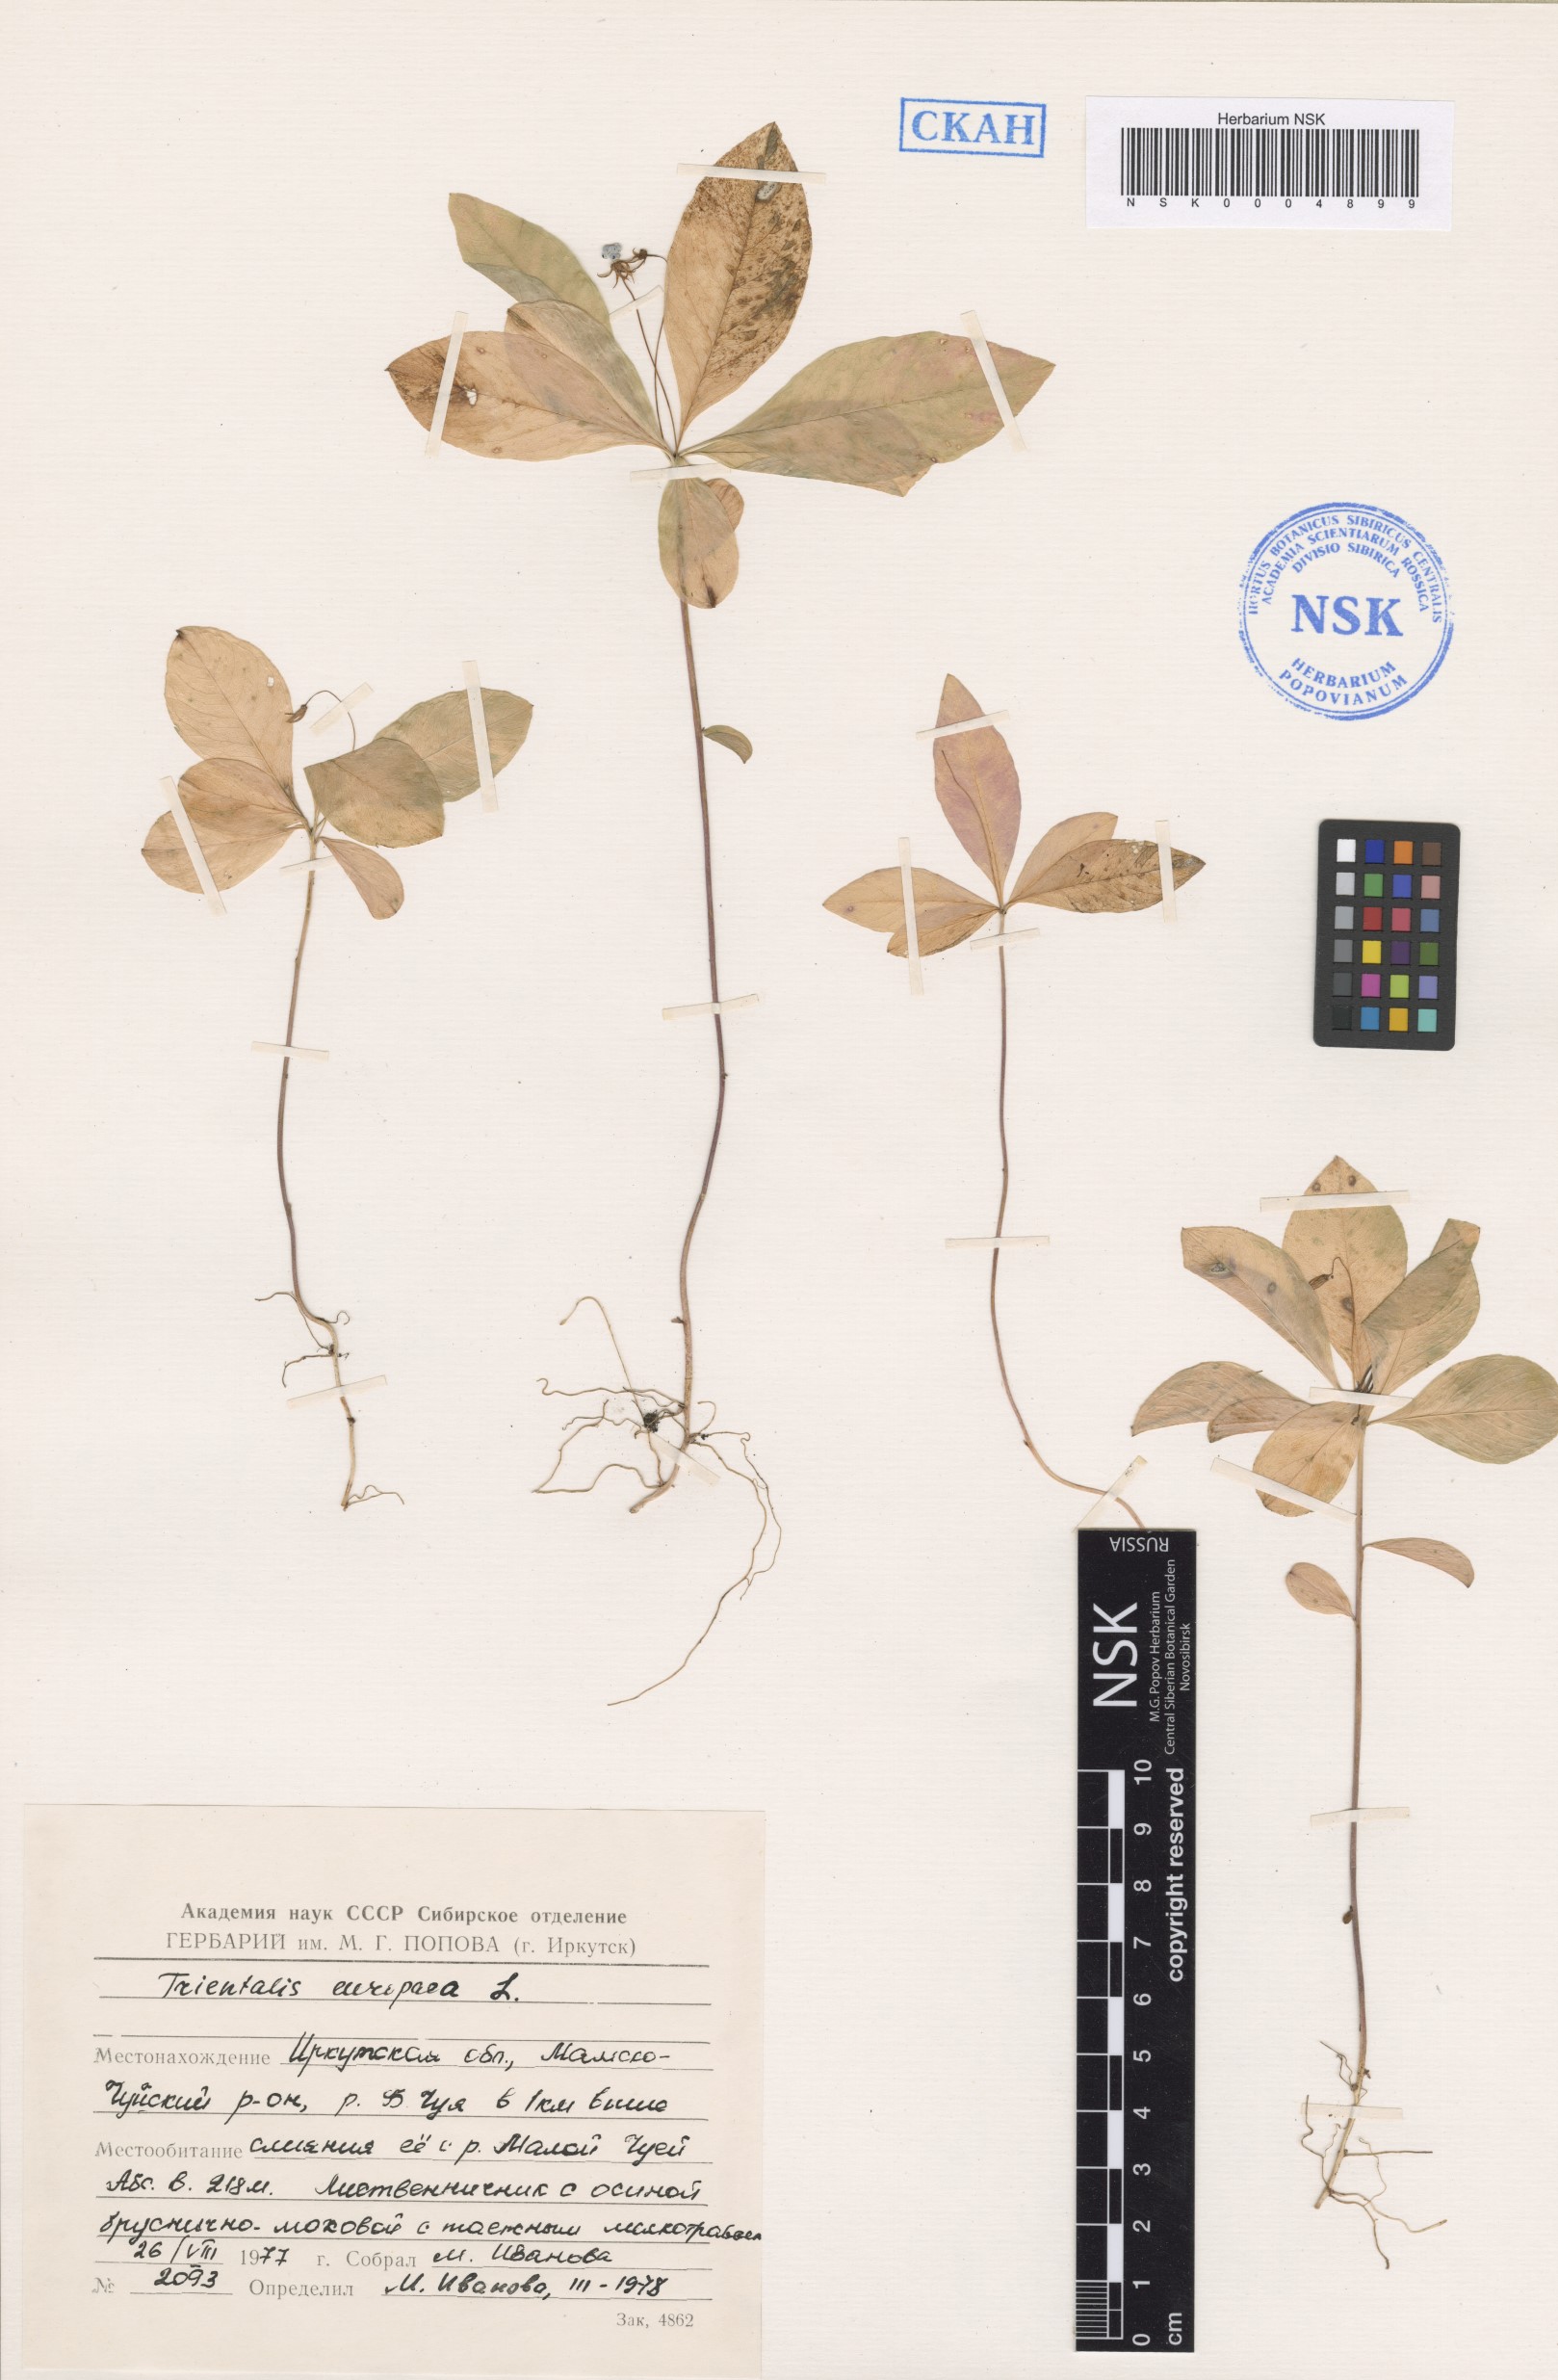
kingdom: Plantae
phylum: Tracheophyta
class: Magnoliopsida
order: Ericales
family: Primulaceae
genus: Lysimachia
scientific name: Lysimachia europaea
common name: Arctic starflower
